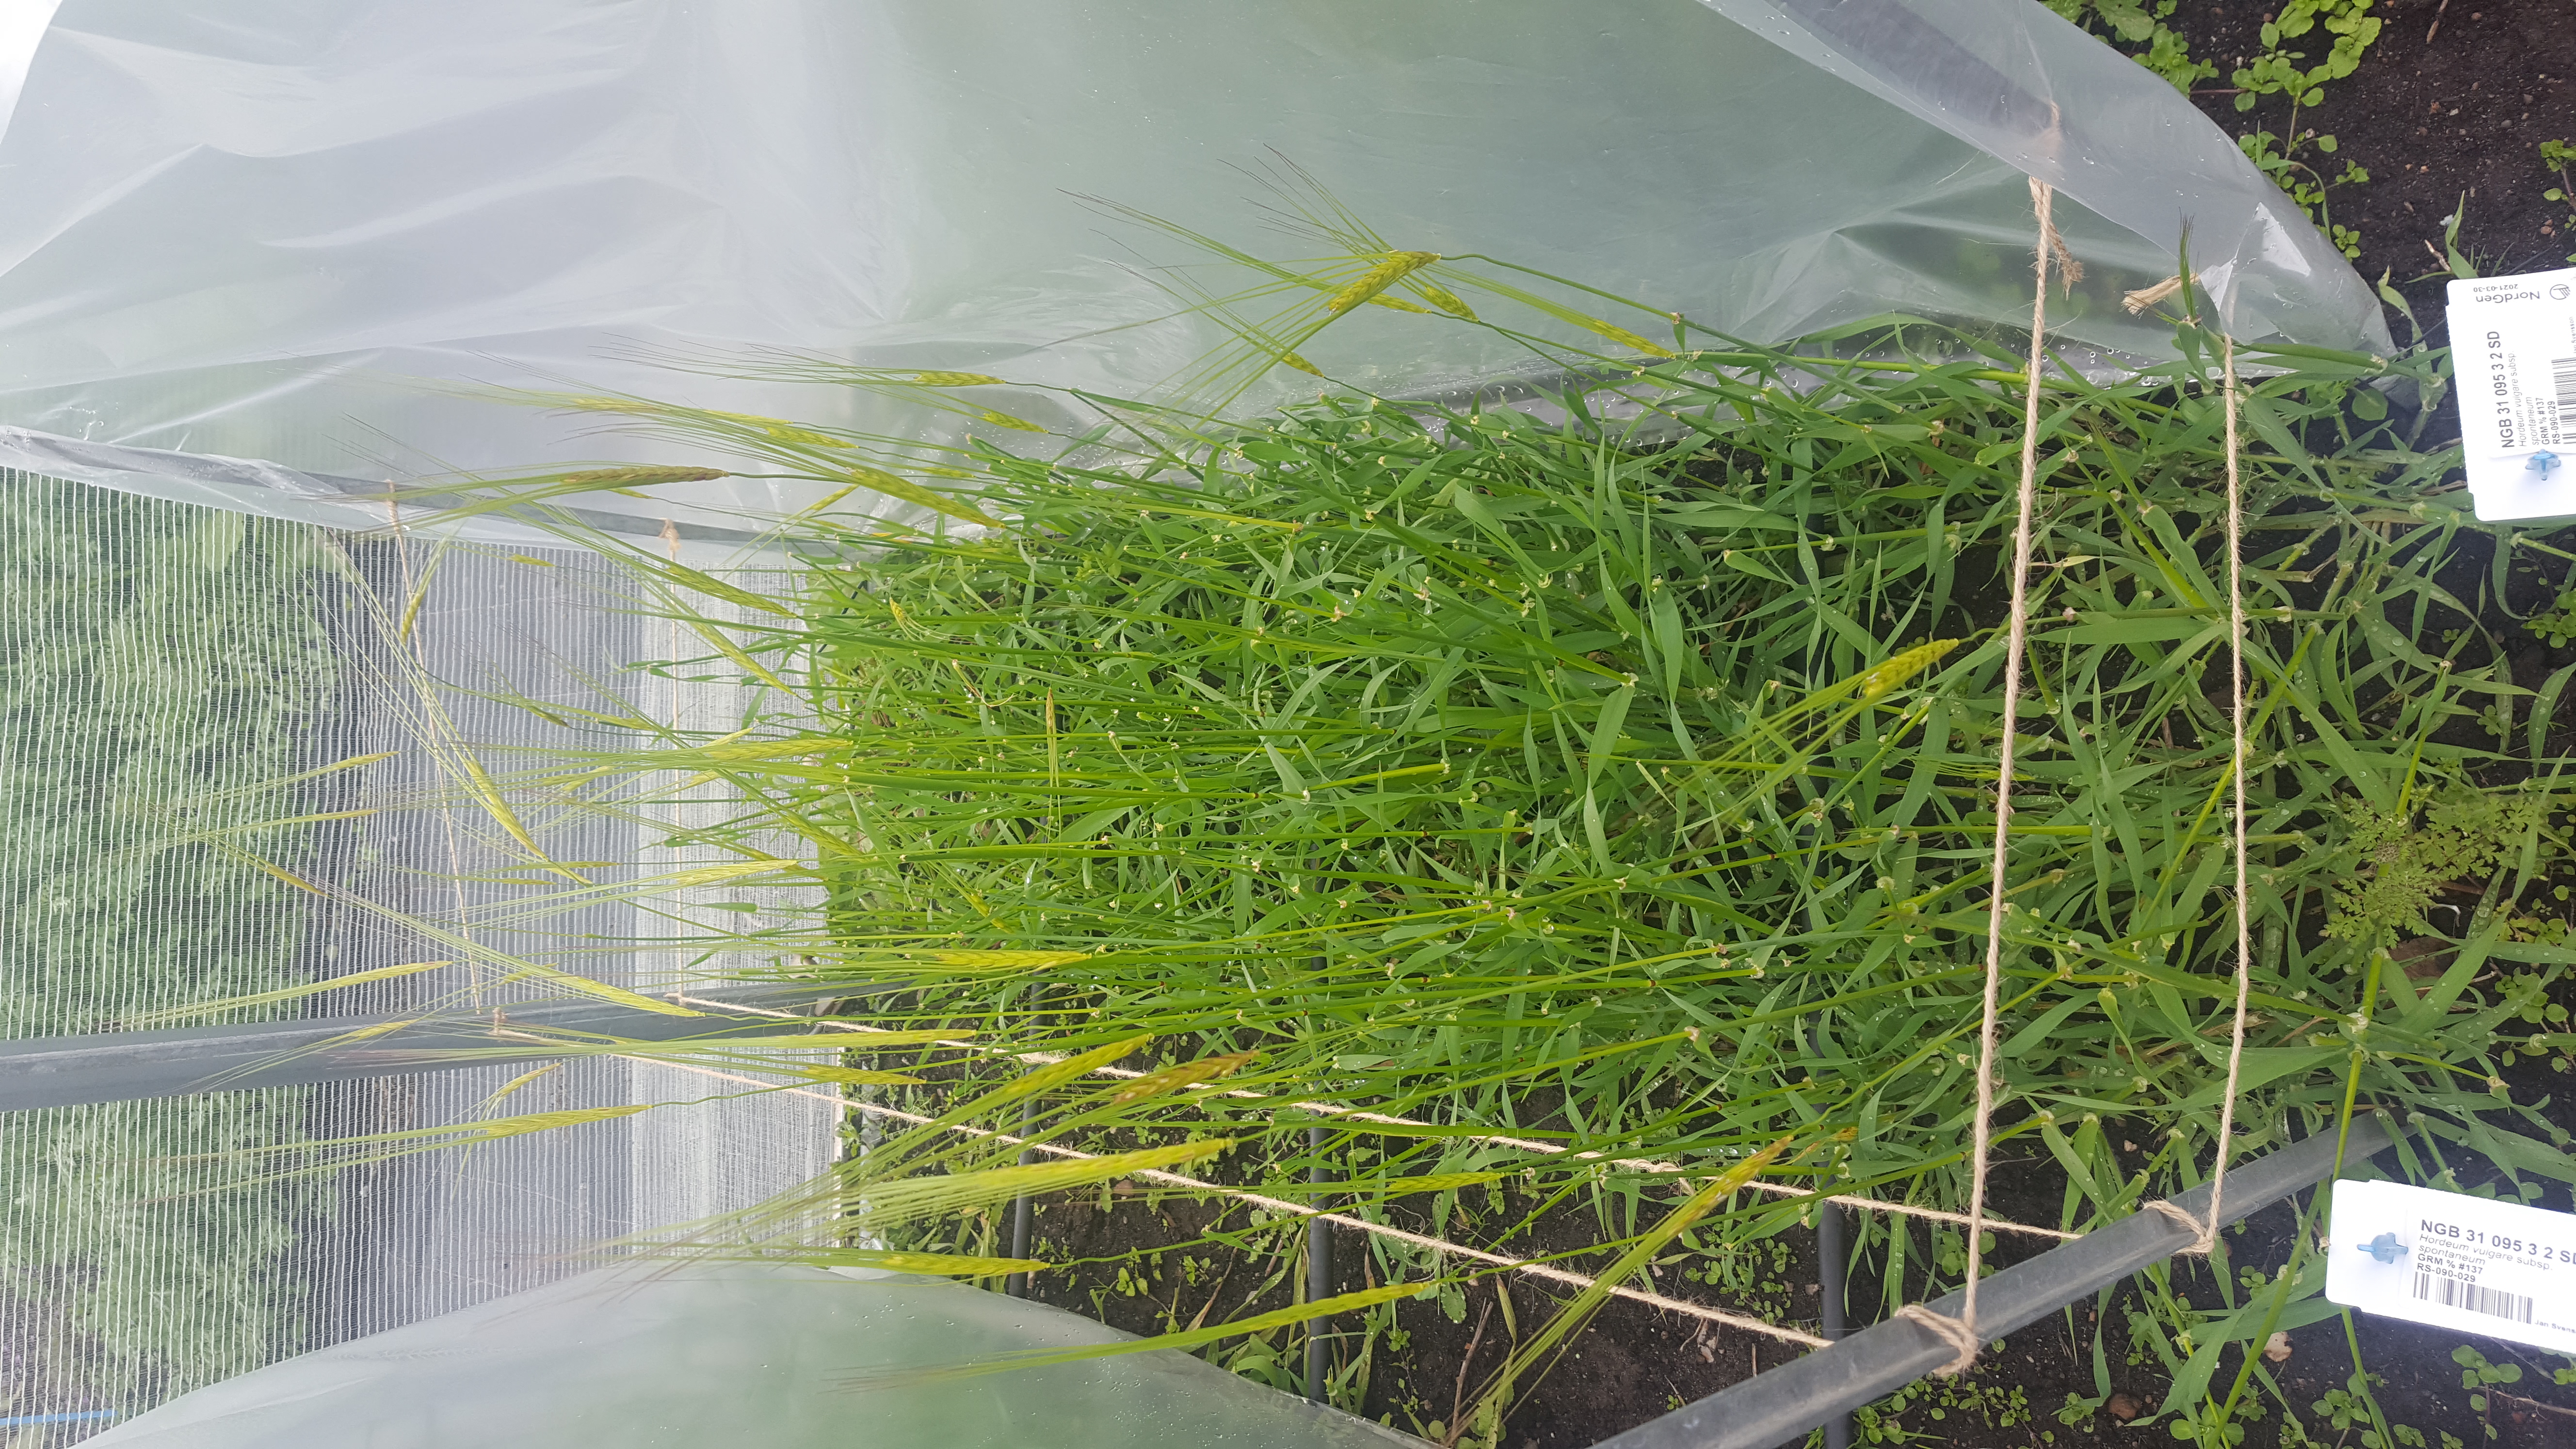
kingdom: Plantae
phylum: Tracheophyta
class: Liliopsida
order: Poales
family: Poaceae
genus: Hordeum
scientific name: Hordeum spontaneum
